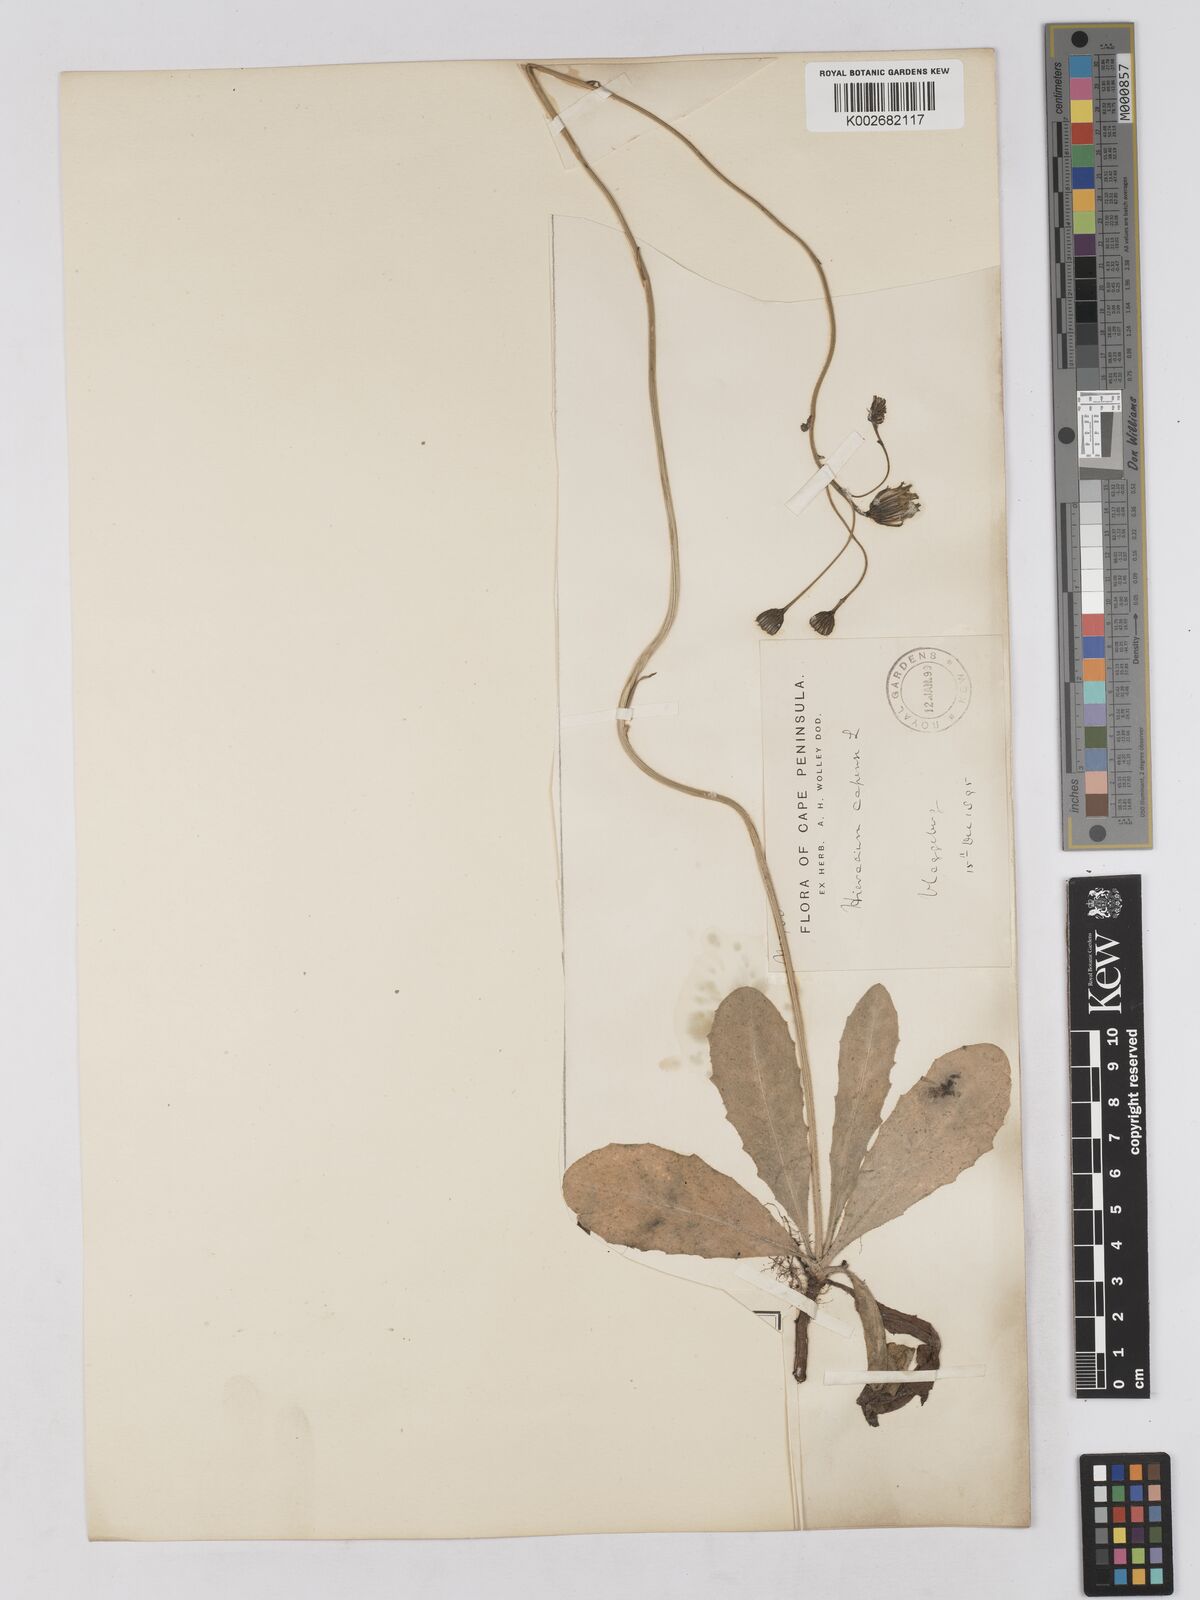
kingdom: Plantae
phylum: Tracheophyta
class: Magnoliopsida
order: Asterales
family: Asteraceae
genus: Tolpis
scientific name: Tolpis capensis
